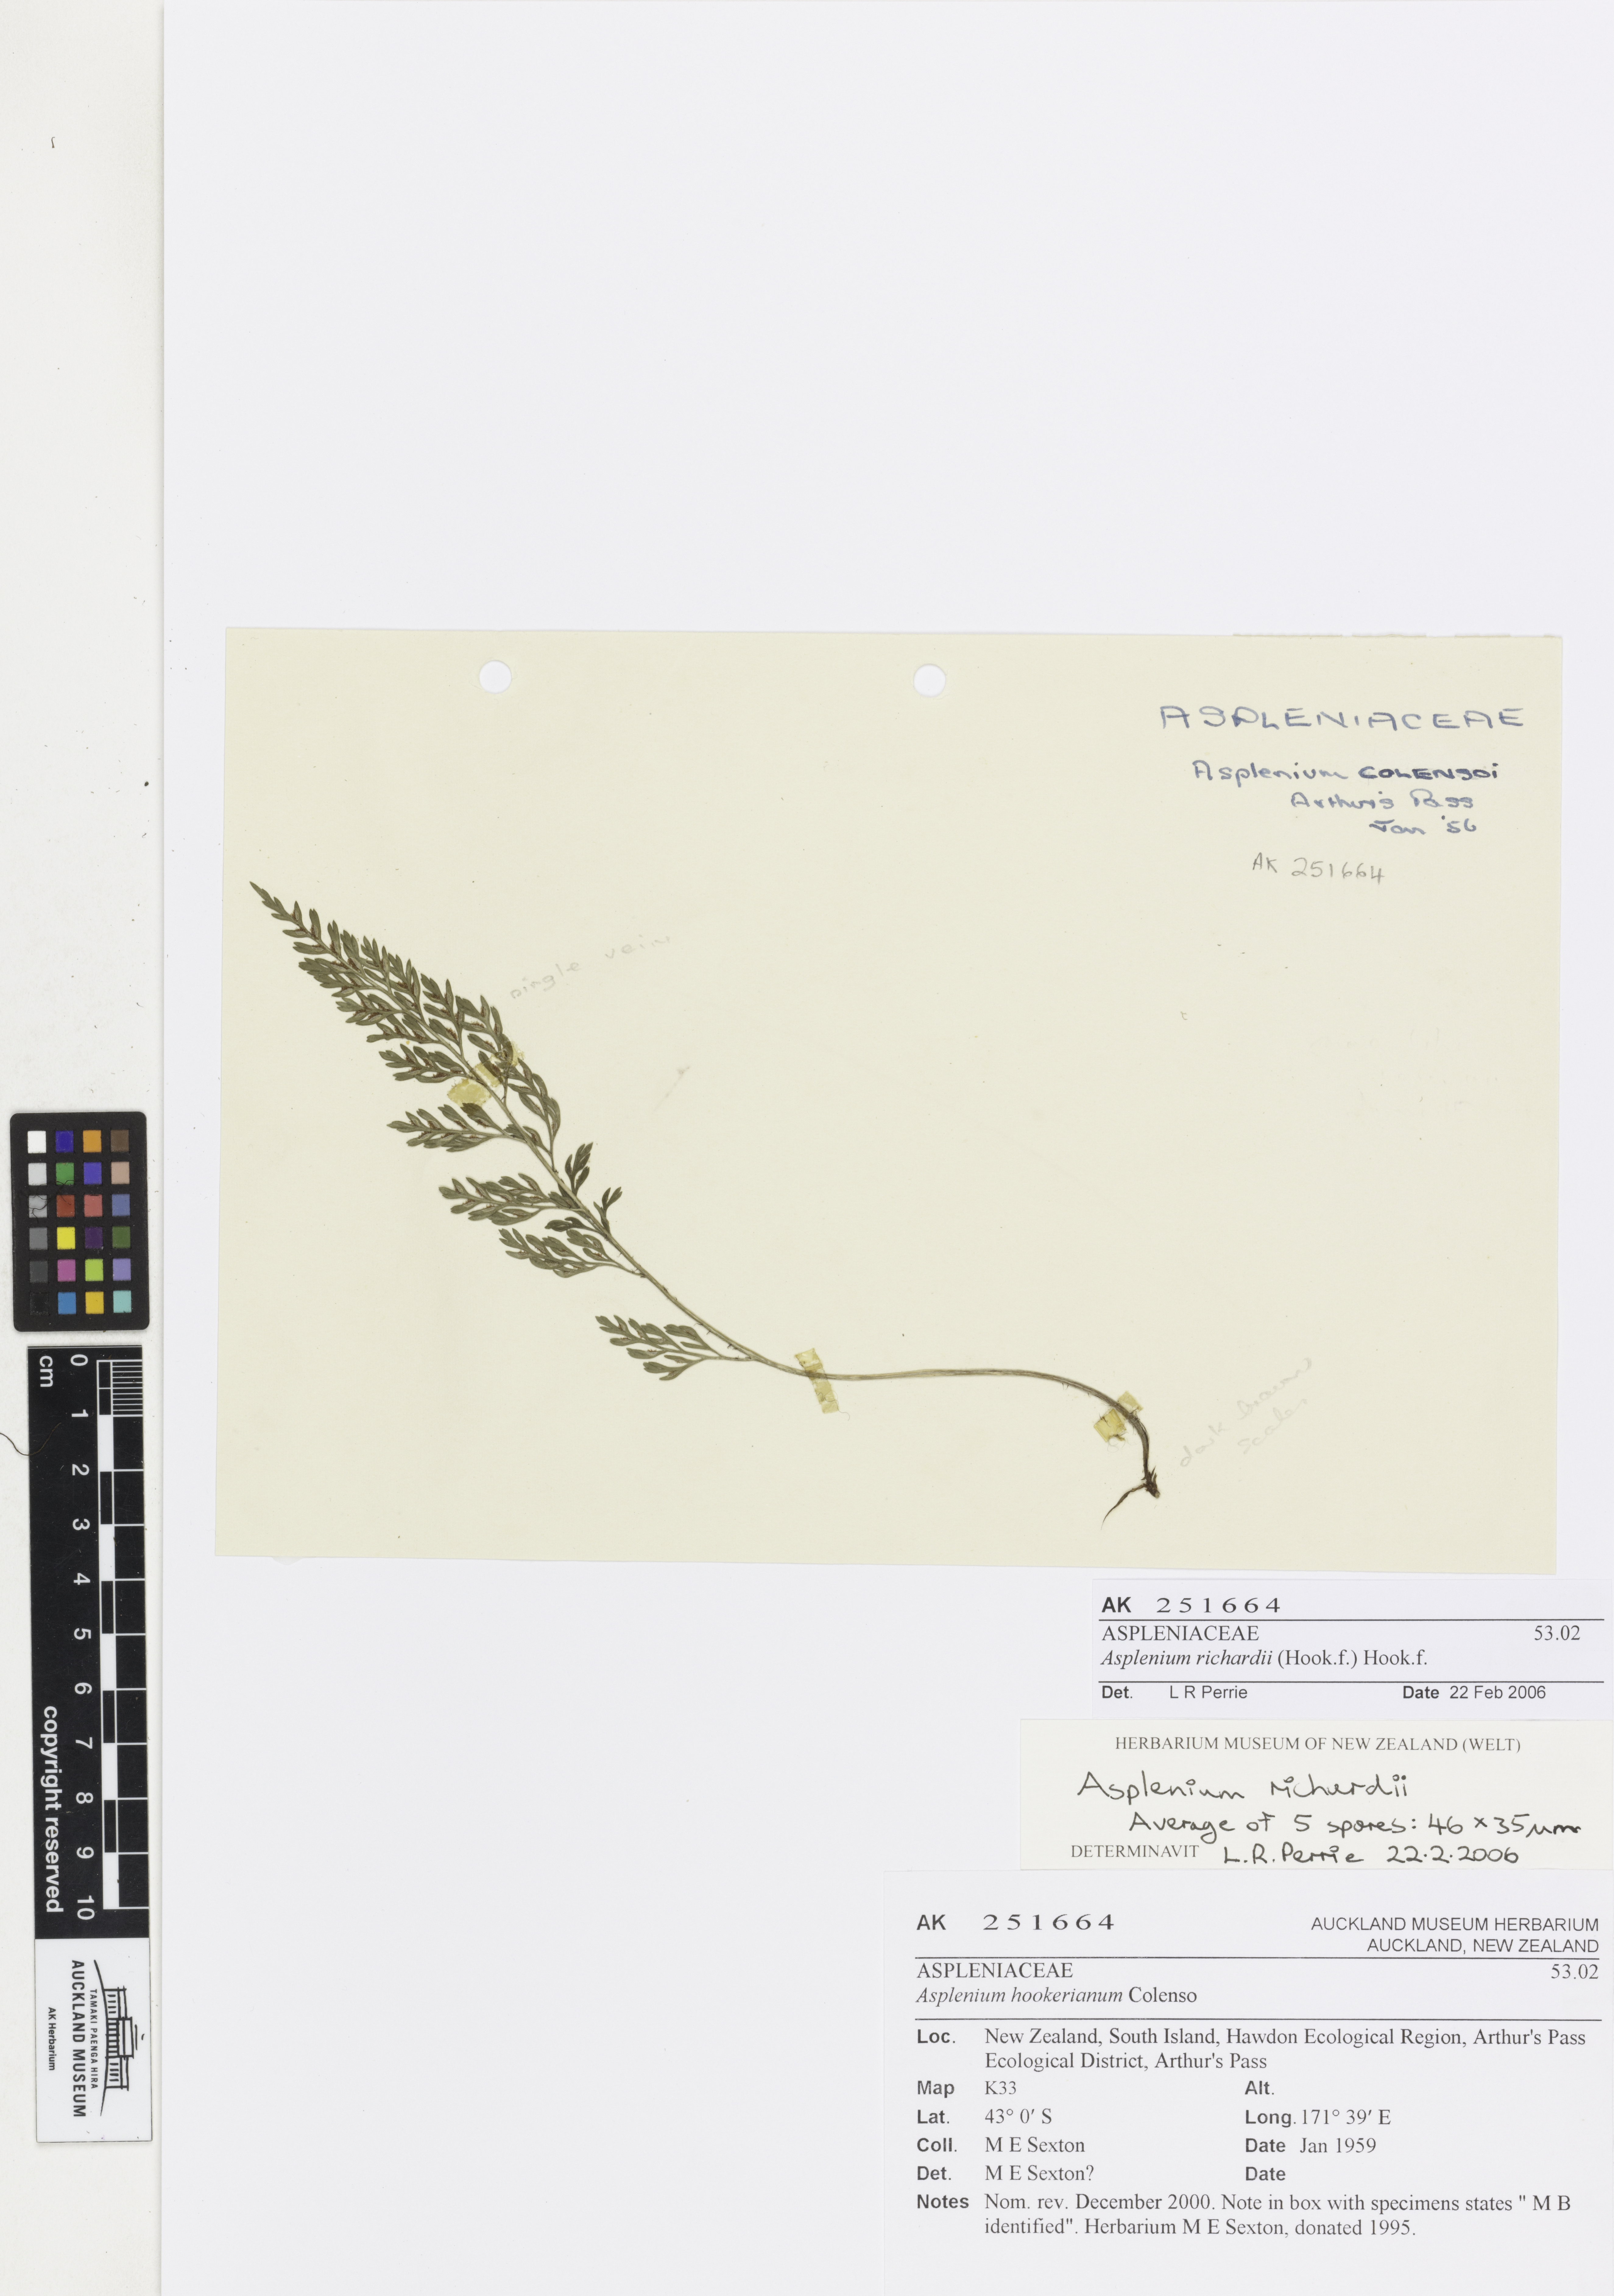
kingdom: Plantae
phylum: Tracheophyta
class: Polypodiopsida
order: Polypodiales
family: Aspleniaceae
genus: Asplenium
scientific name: Asplenium richardii
